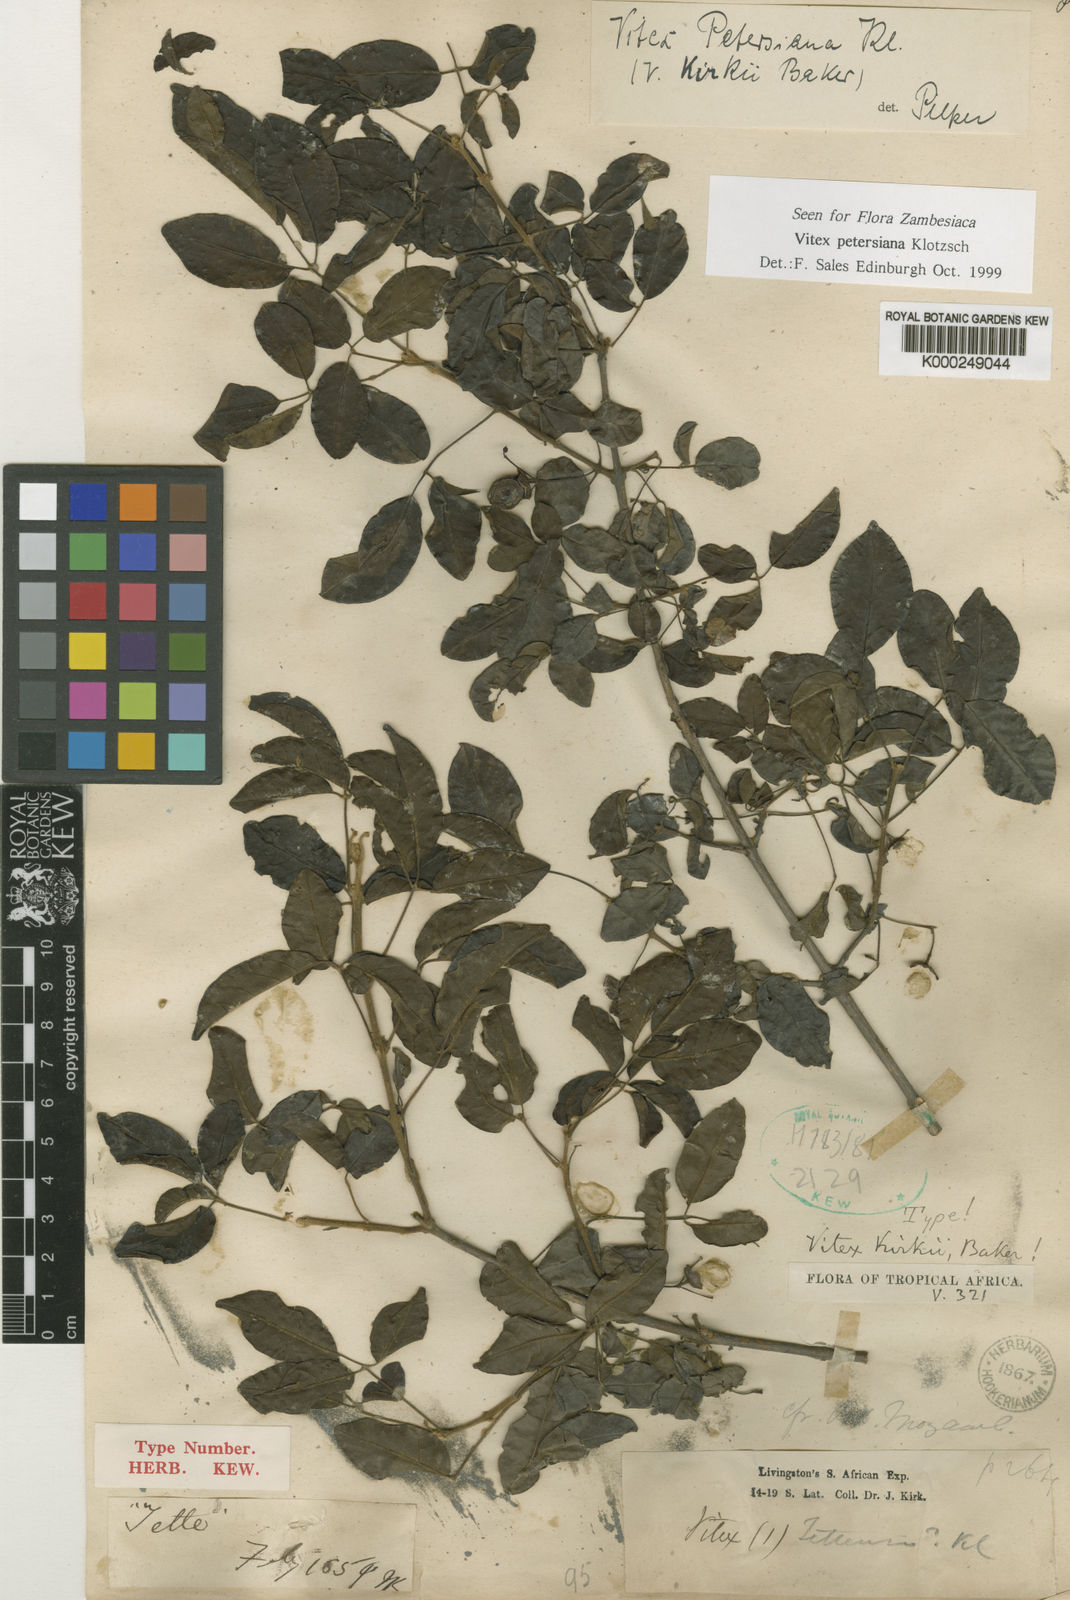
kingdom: Plantae
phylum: Tracheophyta
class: Magnoliopsida
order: Lamiales
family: Lamiaceae
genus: Vitex
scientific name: Vitex petersiana
